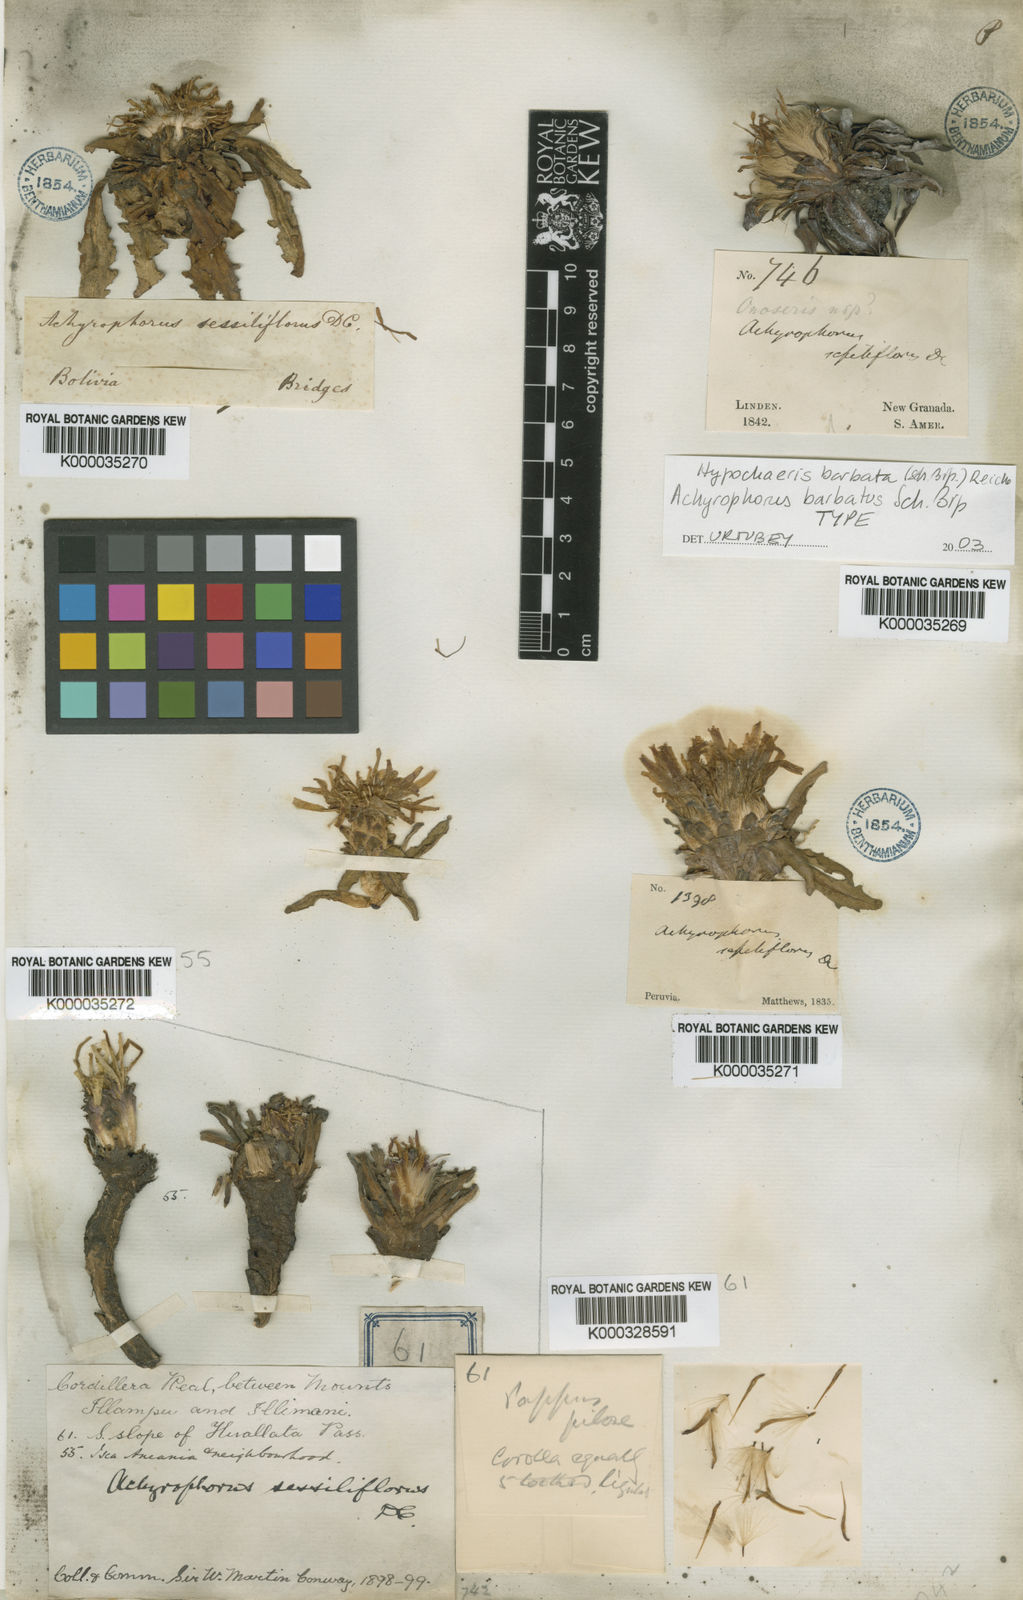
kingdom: Plantae
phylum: Tracheophyta
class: Magnoliopsida
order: Asterales
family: Asteraceae
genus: Hypochaeris
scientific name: Hypochaeris sessiliflora
